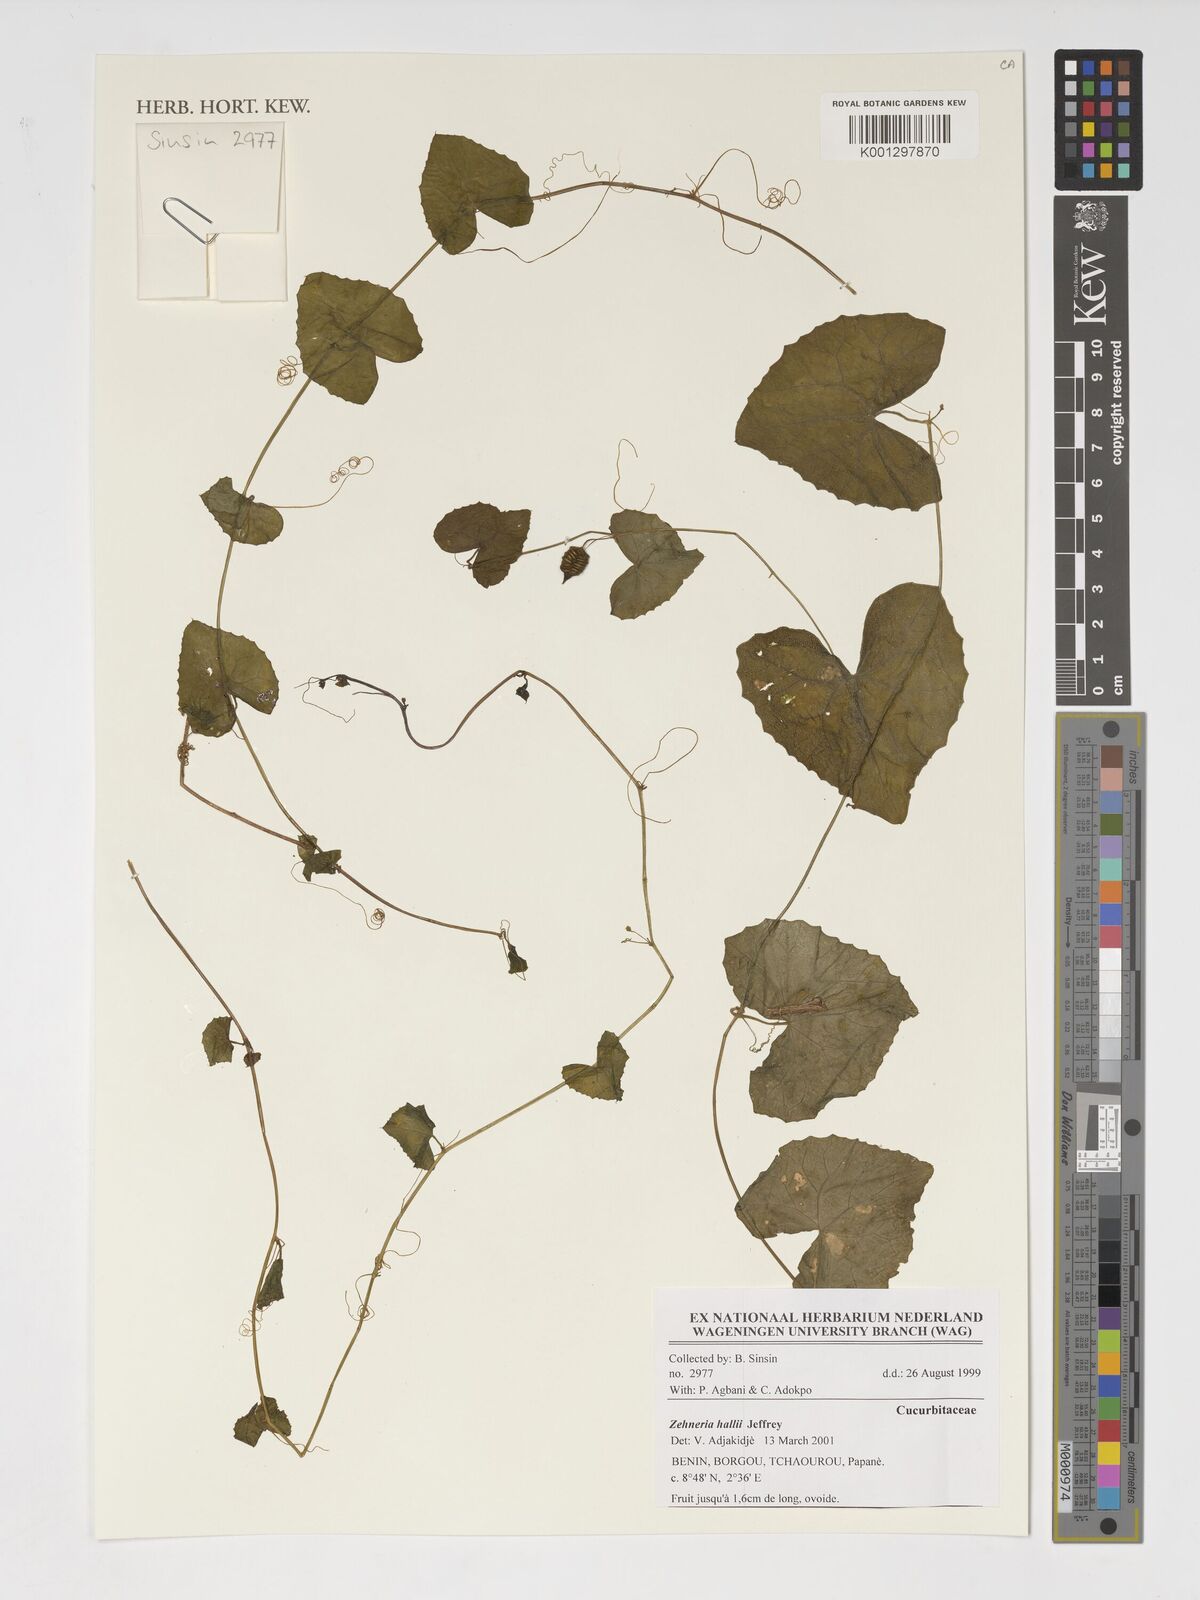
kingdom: Plantae
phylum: Tracheophyta
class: Magnoliopsida
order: Cucurbitales
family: Cucurbitaceae
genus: Zehneria
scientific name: Zehneria hallii
